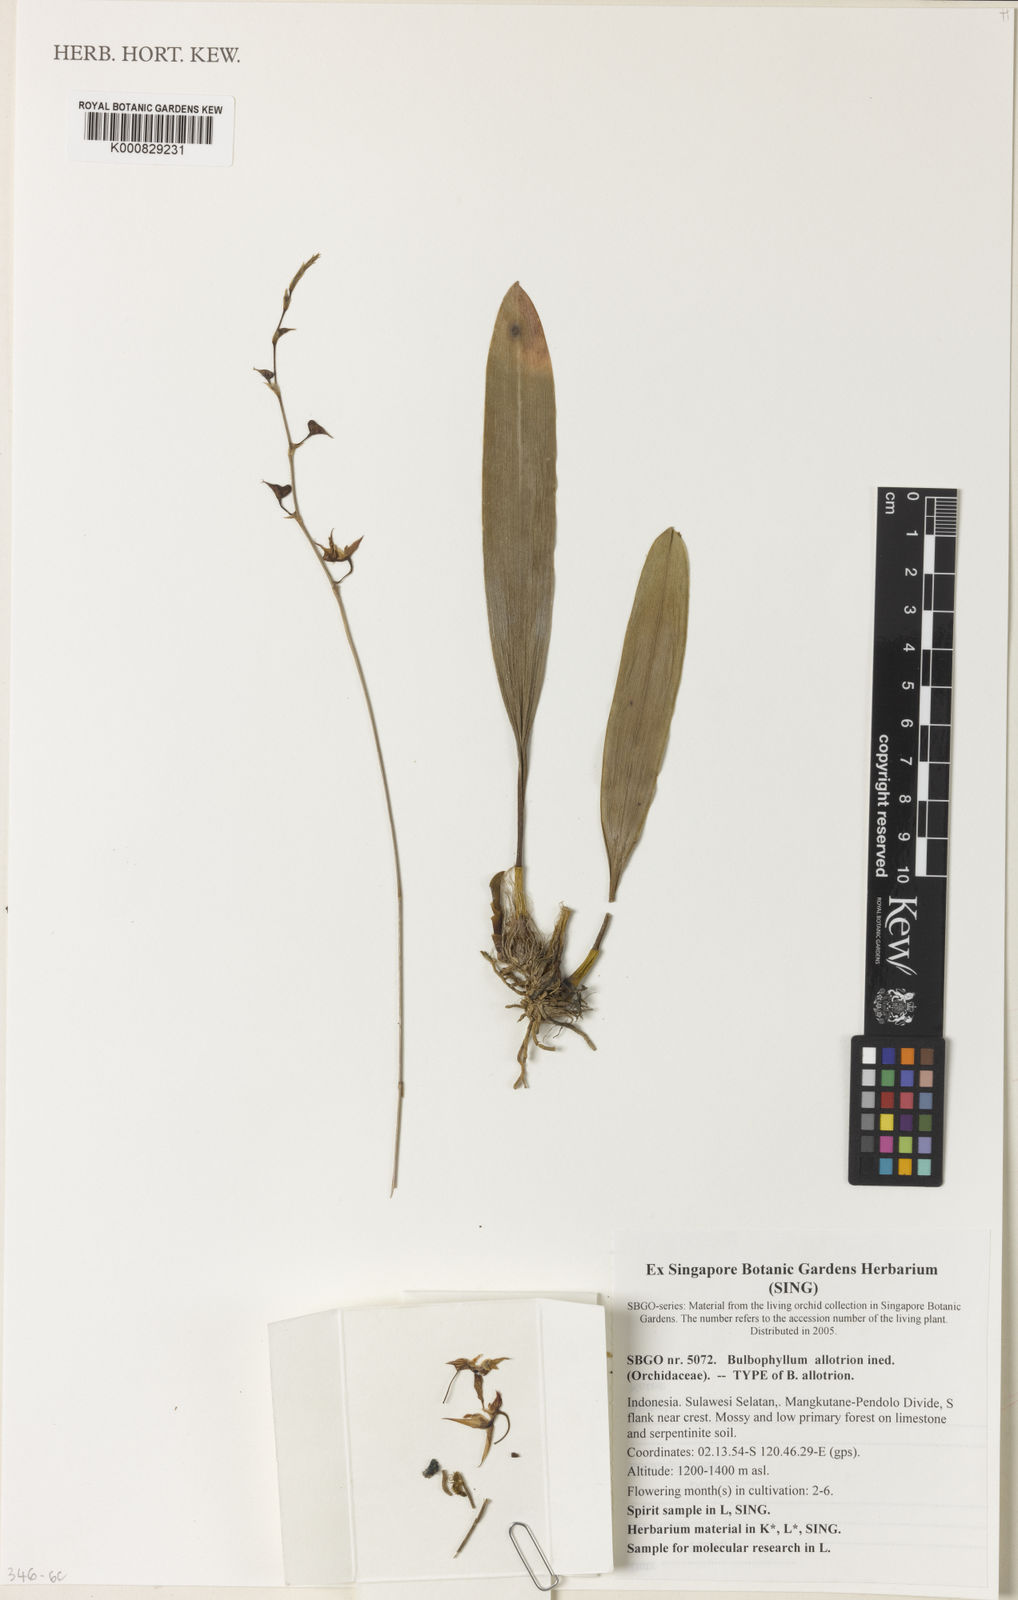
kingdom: Plantae
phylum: Tracheophyta
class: Liliopsida
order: Asparagales
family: Orchidaceae
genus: Bulbophyllum
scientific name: Bulbophyllum allotrion
